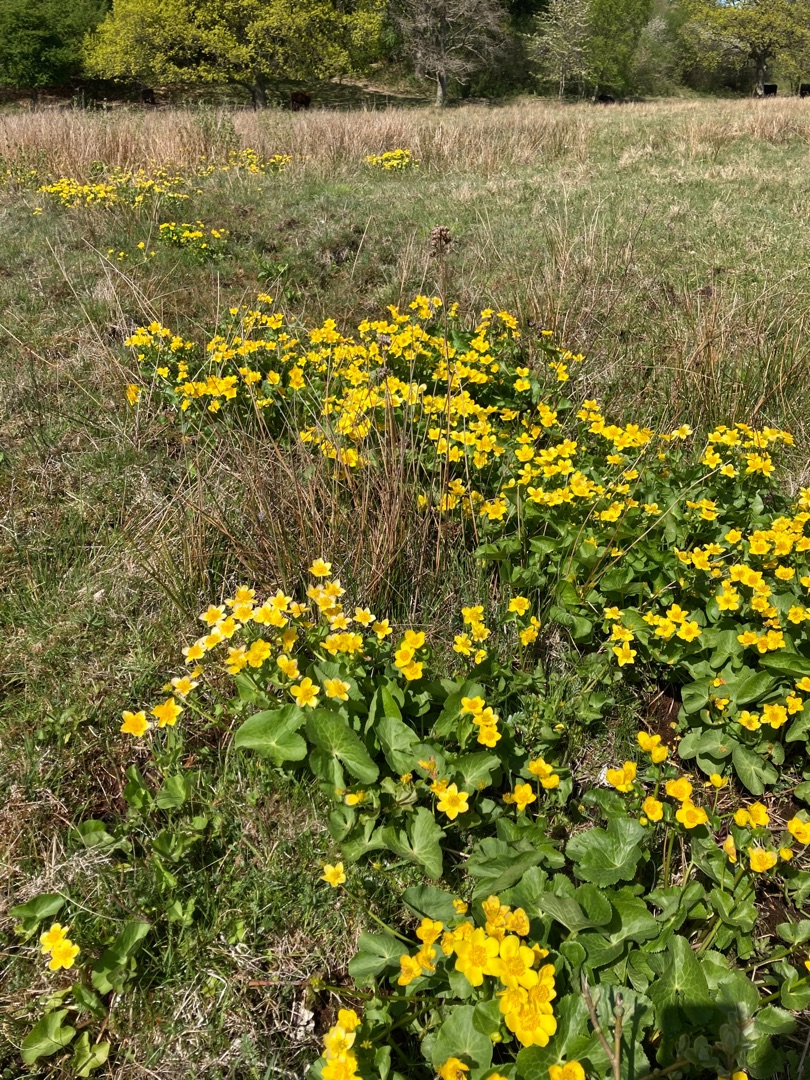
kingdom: Plantae
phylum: Tracheophyta
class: Magnoliopsida
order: Ranunculales
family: Ranunculaceae
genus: Caltha
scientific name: Caltha palustris
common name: Eng-kabbeleje
